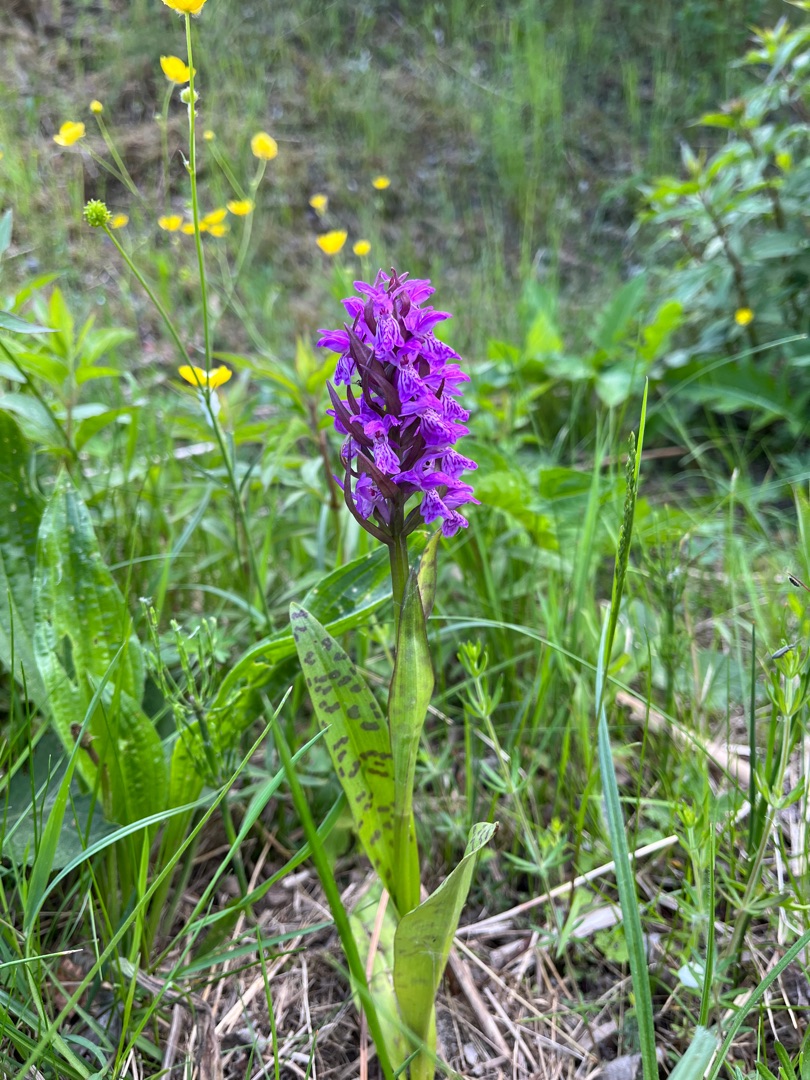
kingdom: Plantae
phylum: Tracheophyta
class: Liliopsida
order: Asparagales
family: Orchidaceae
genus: Dactylorhiza
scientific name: Dactylorhiza majalis
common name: Maj-gøgeurt
